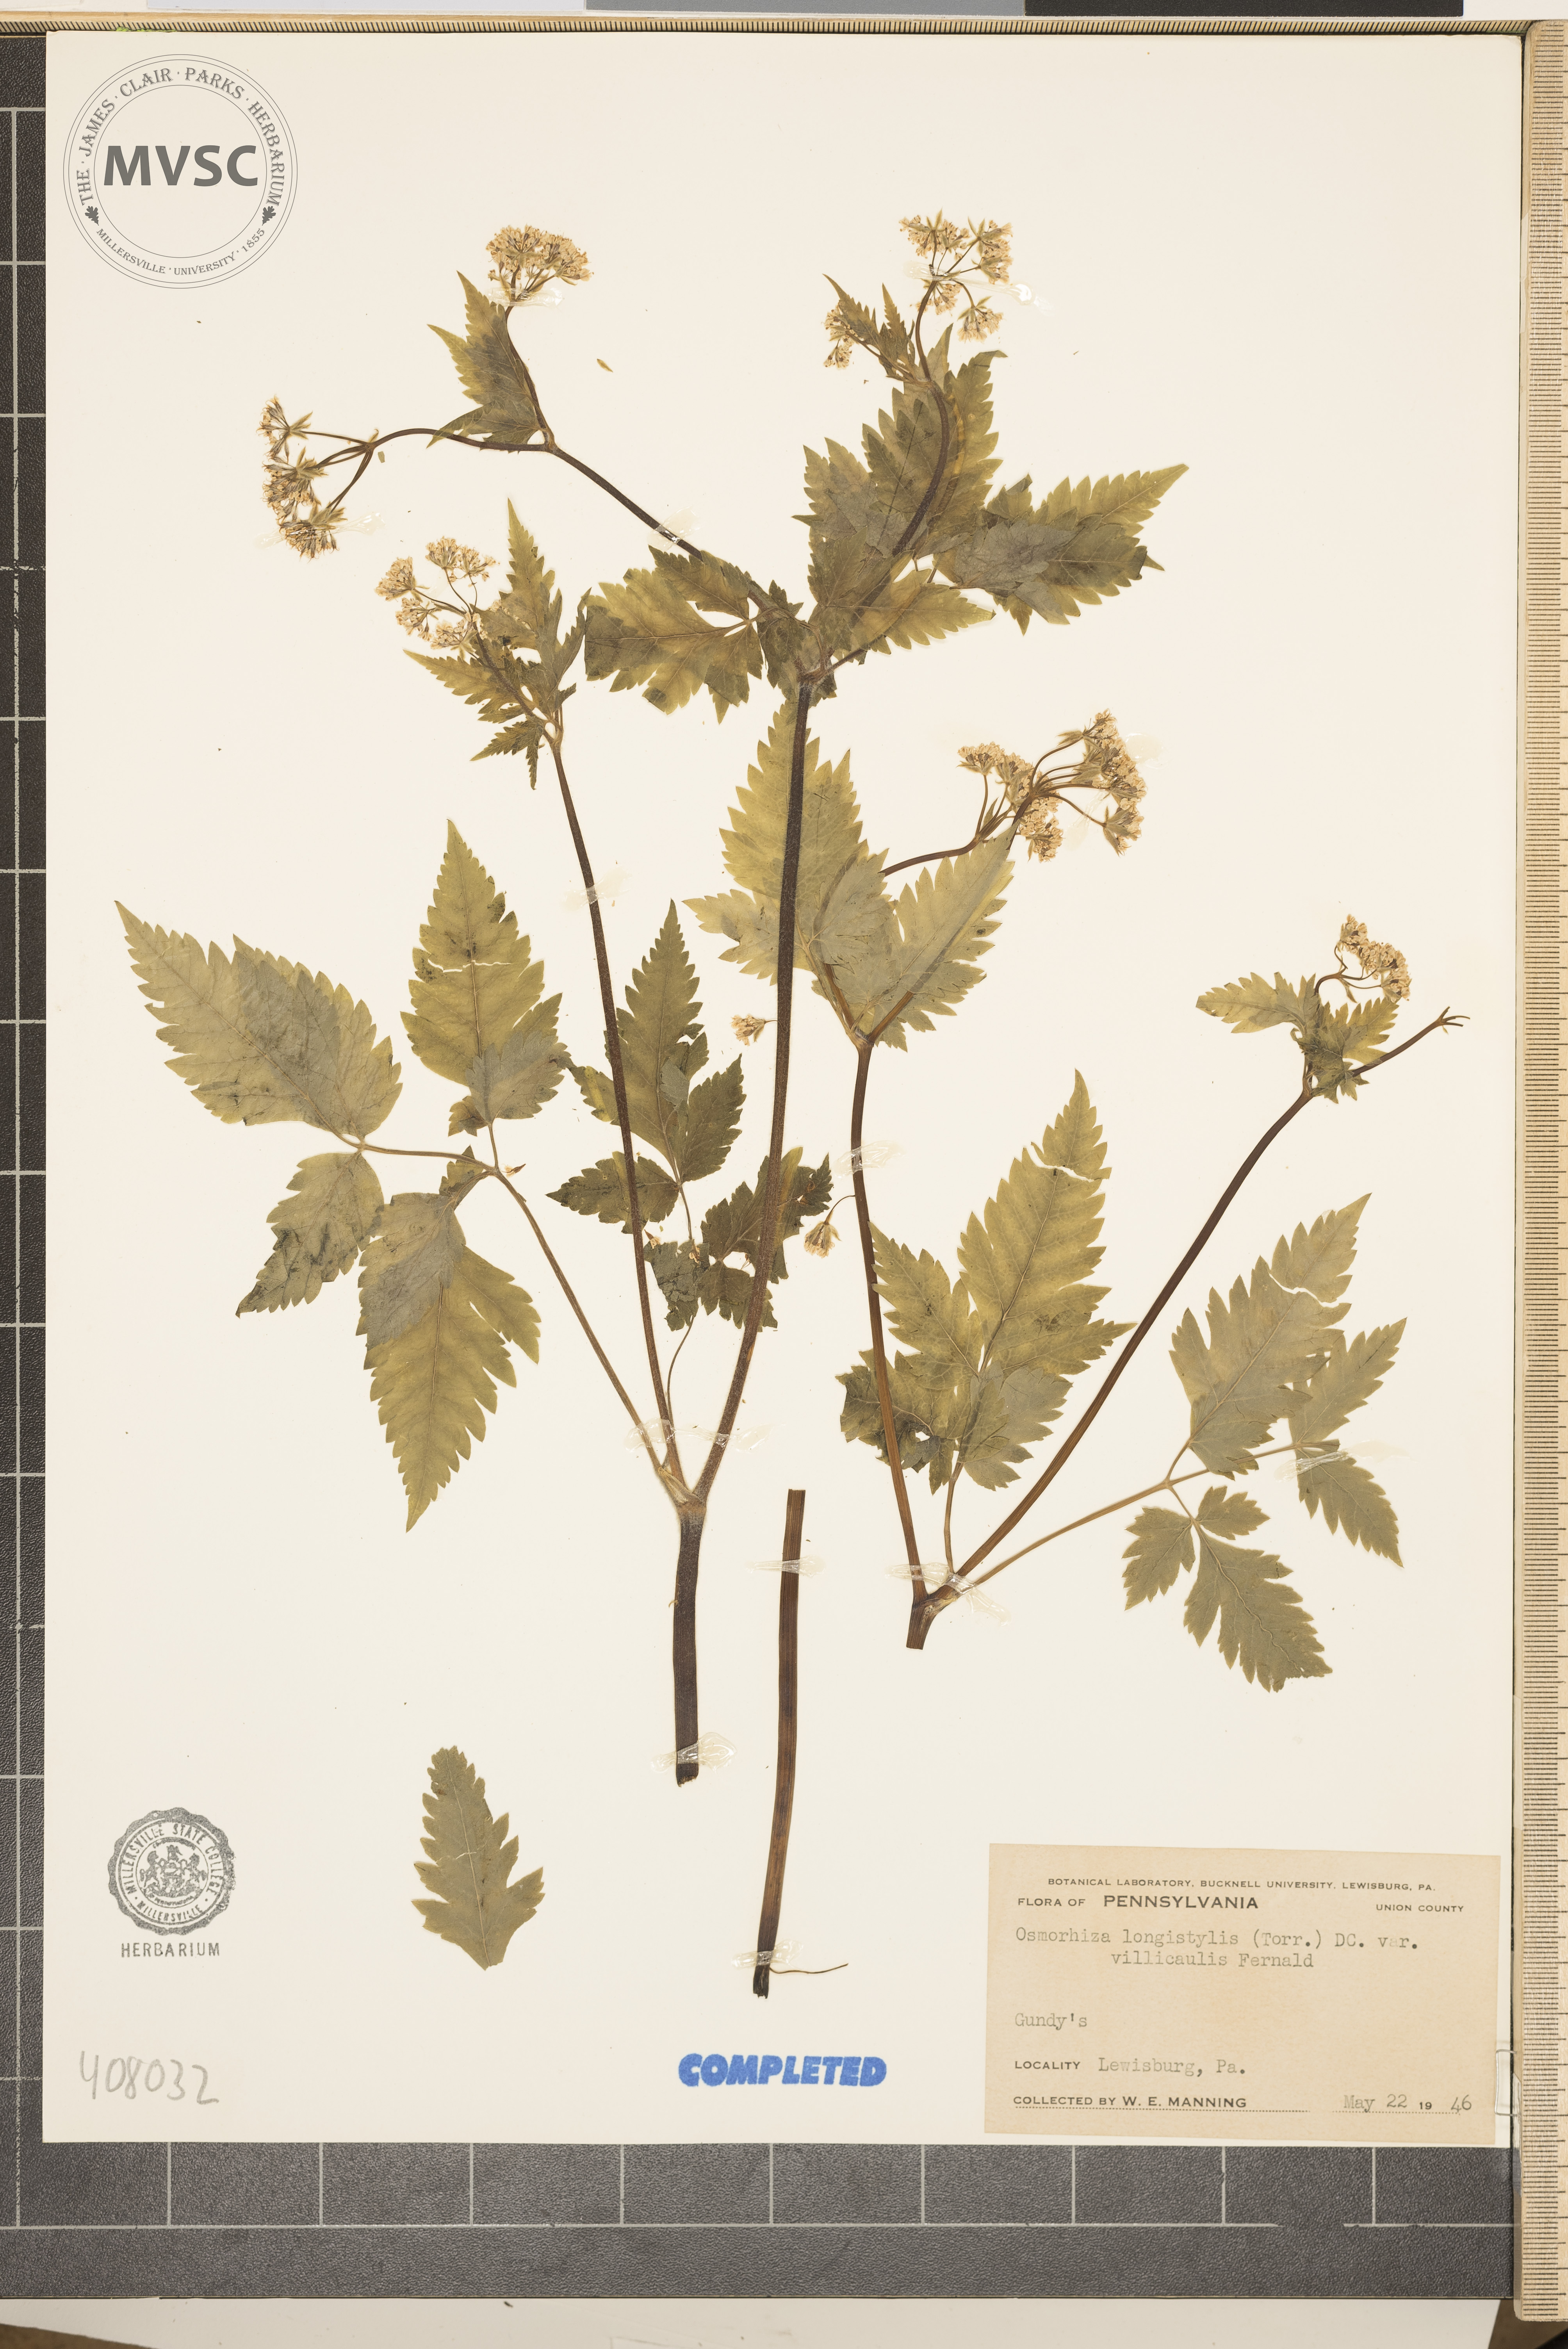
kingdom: Plantae
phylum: Tracheophyta
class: Magnoliopsida
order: Apiales
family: Apiaceae
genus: Osmorhiza
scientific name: Osmorhiza longistylis
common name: Smooth sweet cicely
